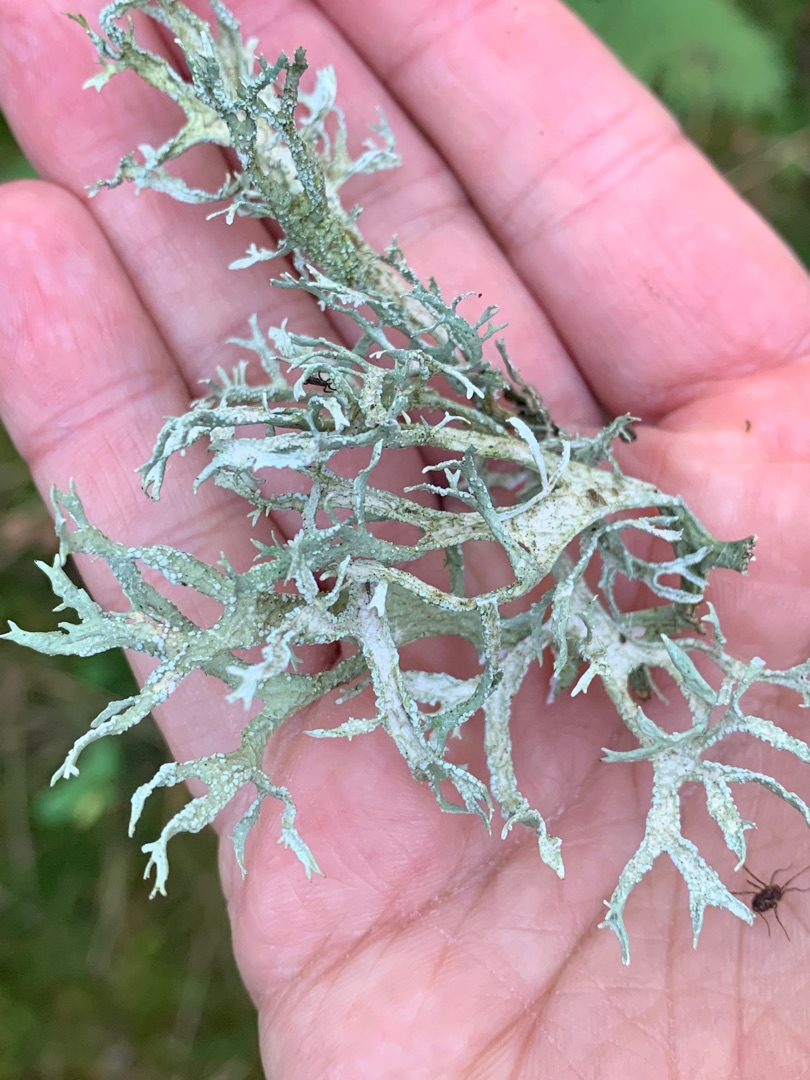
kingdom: Fungi
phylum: Ascomycota
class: Lecanoromycetes
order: Lecanorales
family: Parmeliaceae
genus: Evernia
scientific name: Evernia prunastri
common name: Almindelig slåenlav
